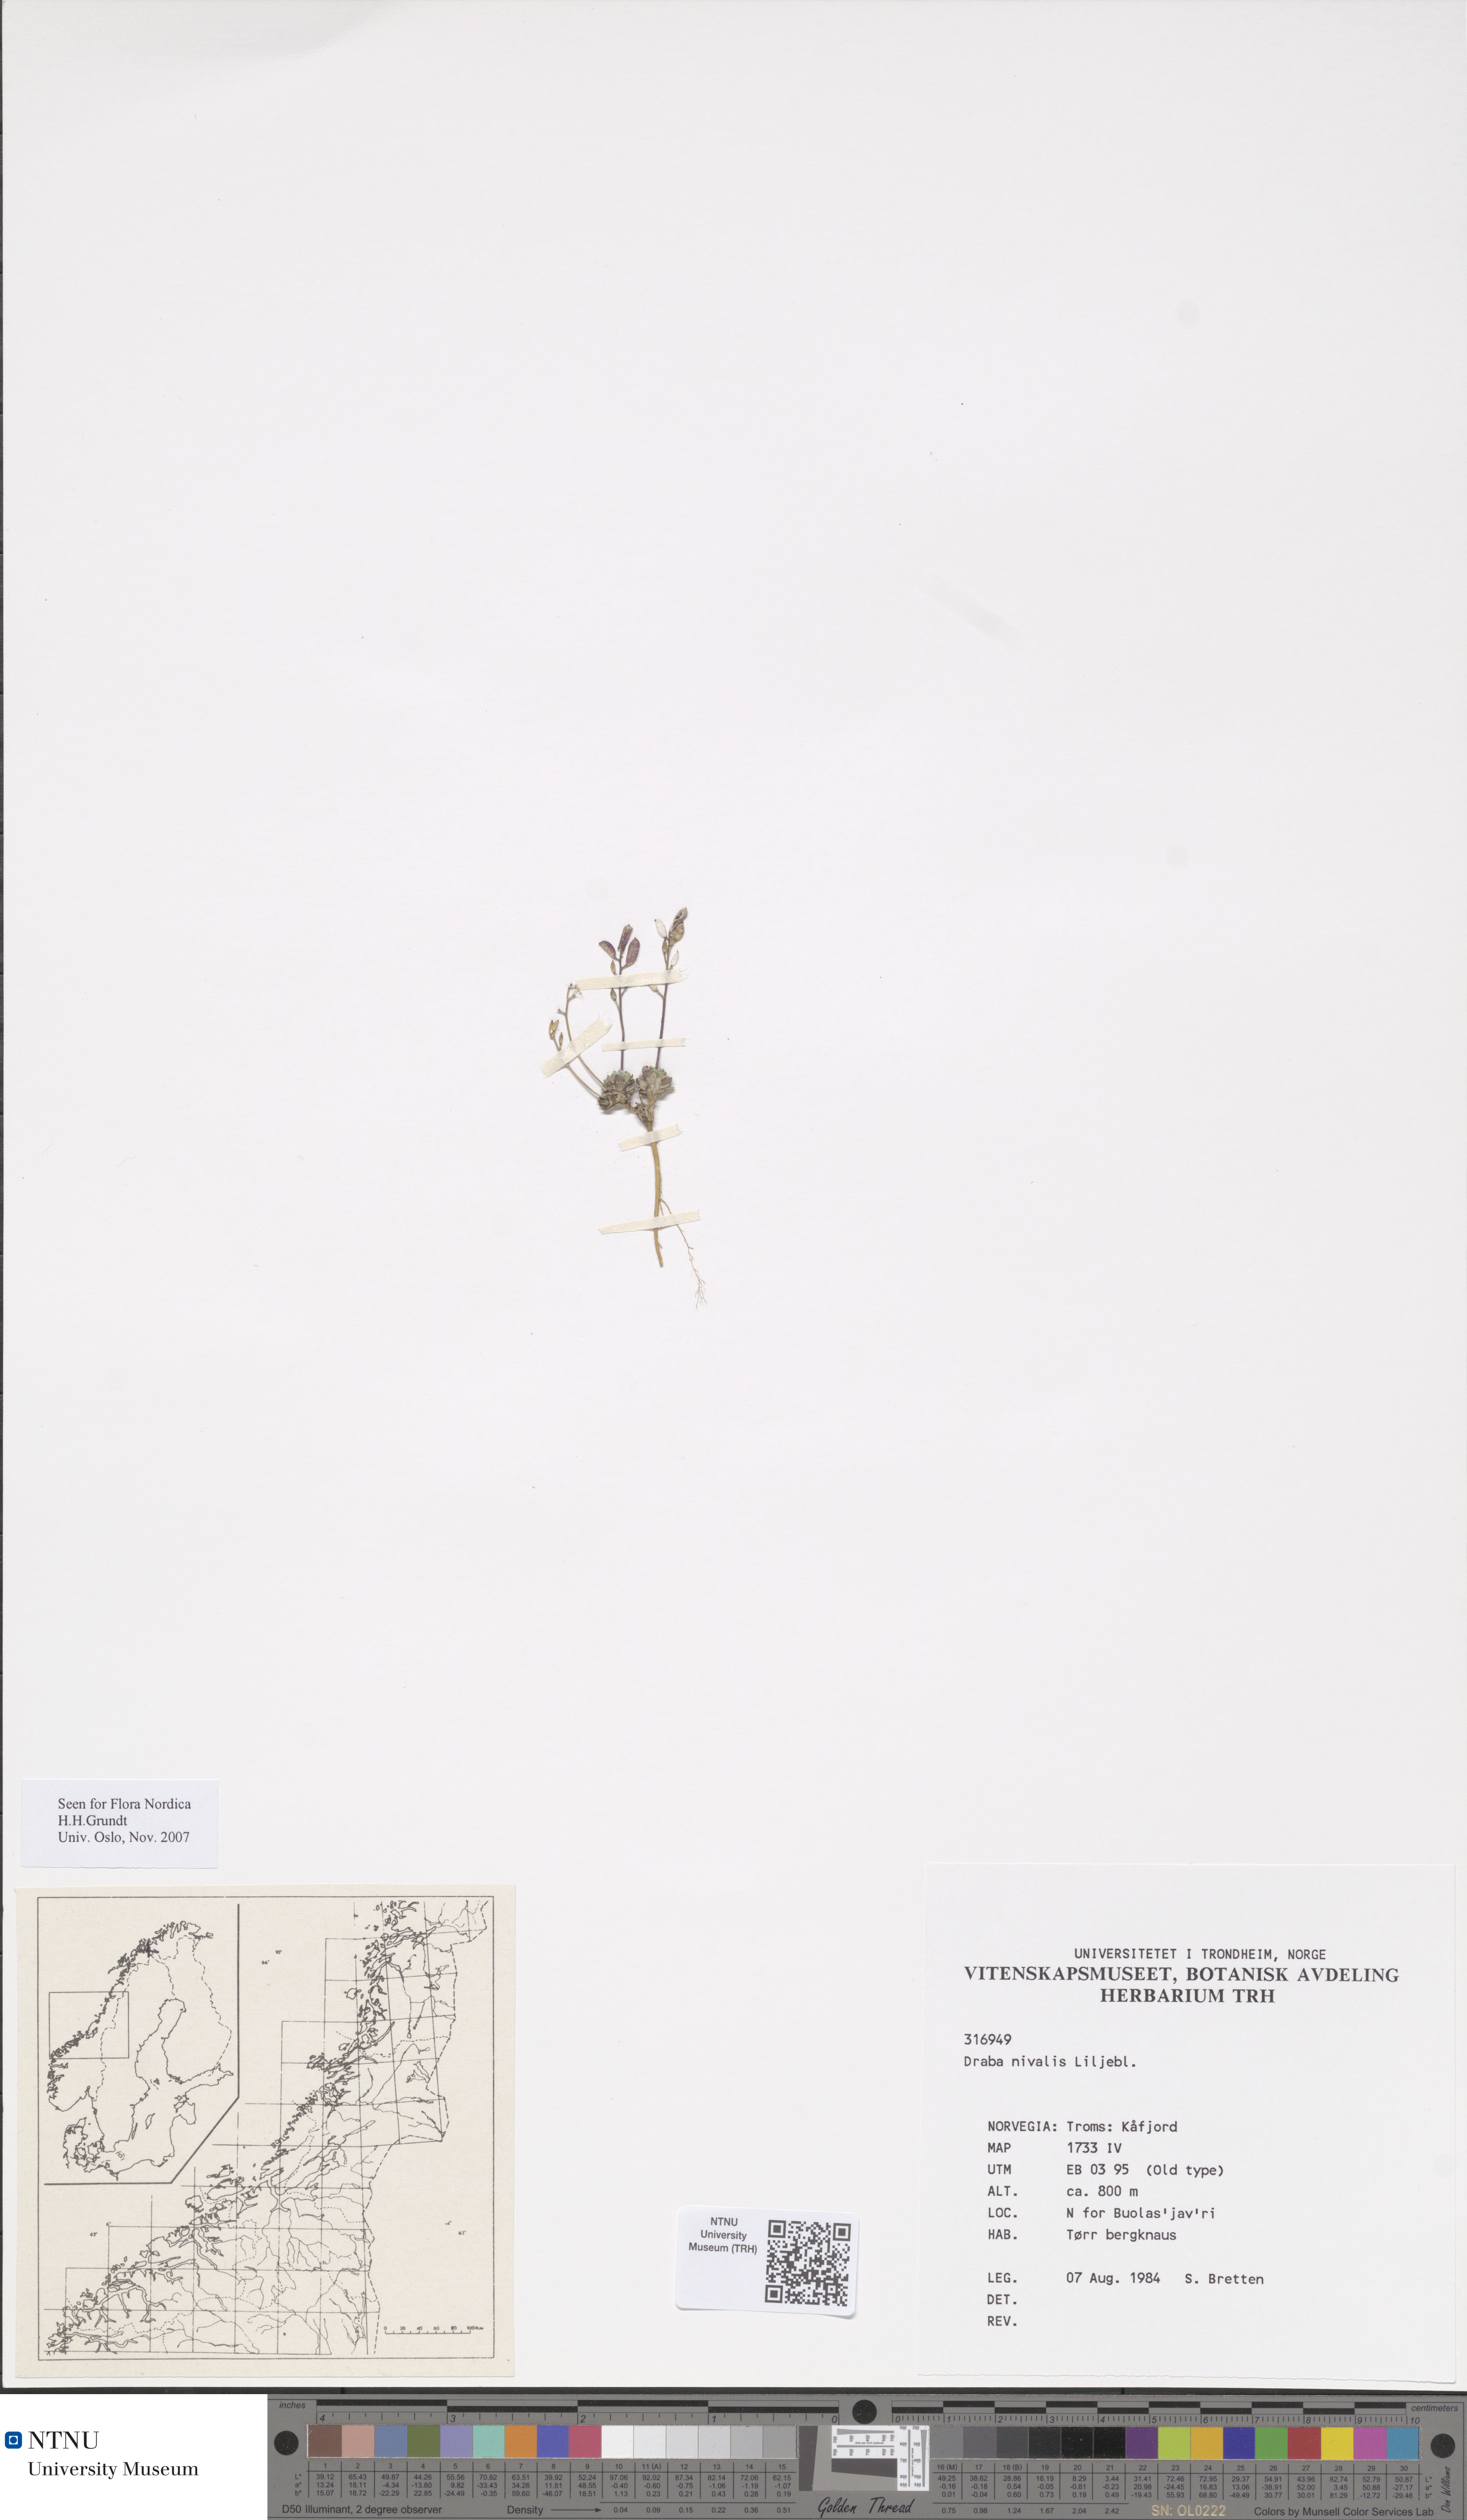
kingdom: Plantae
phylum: Tracheophyta
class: Magnoliopsida
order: Brassicales
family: Brassicaceae
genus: Draba
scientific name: Draba nivalis
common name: Snow draba
